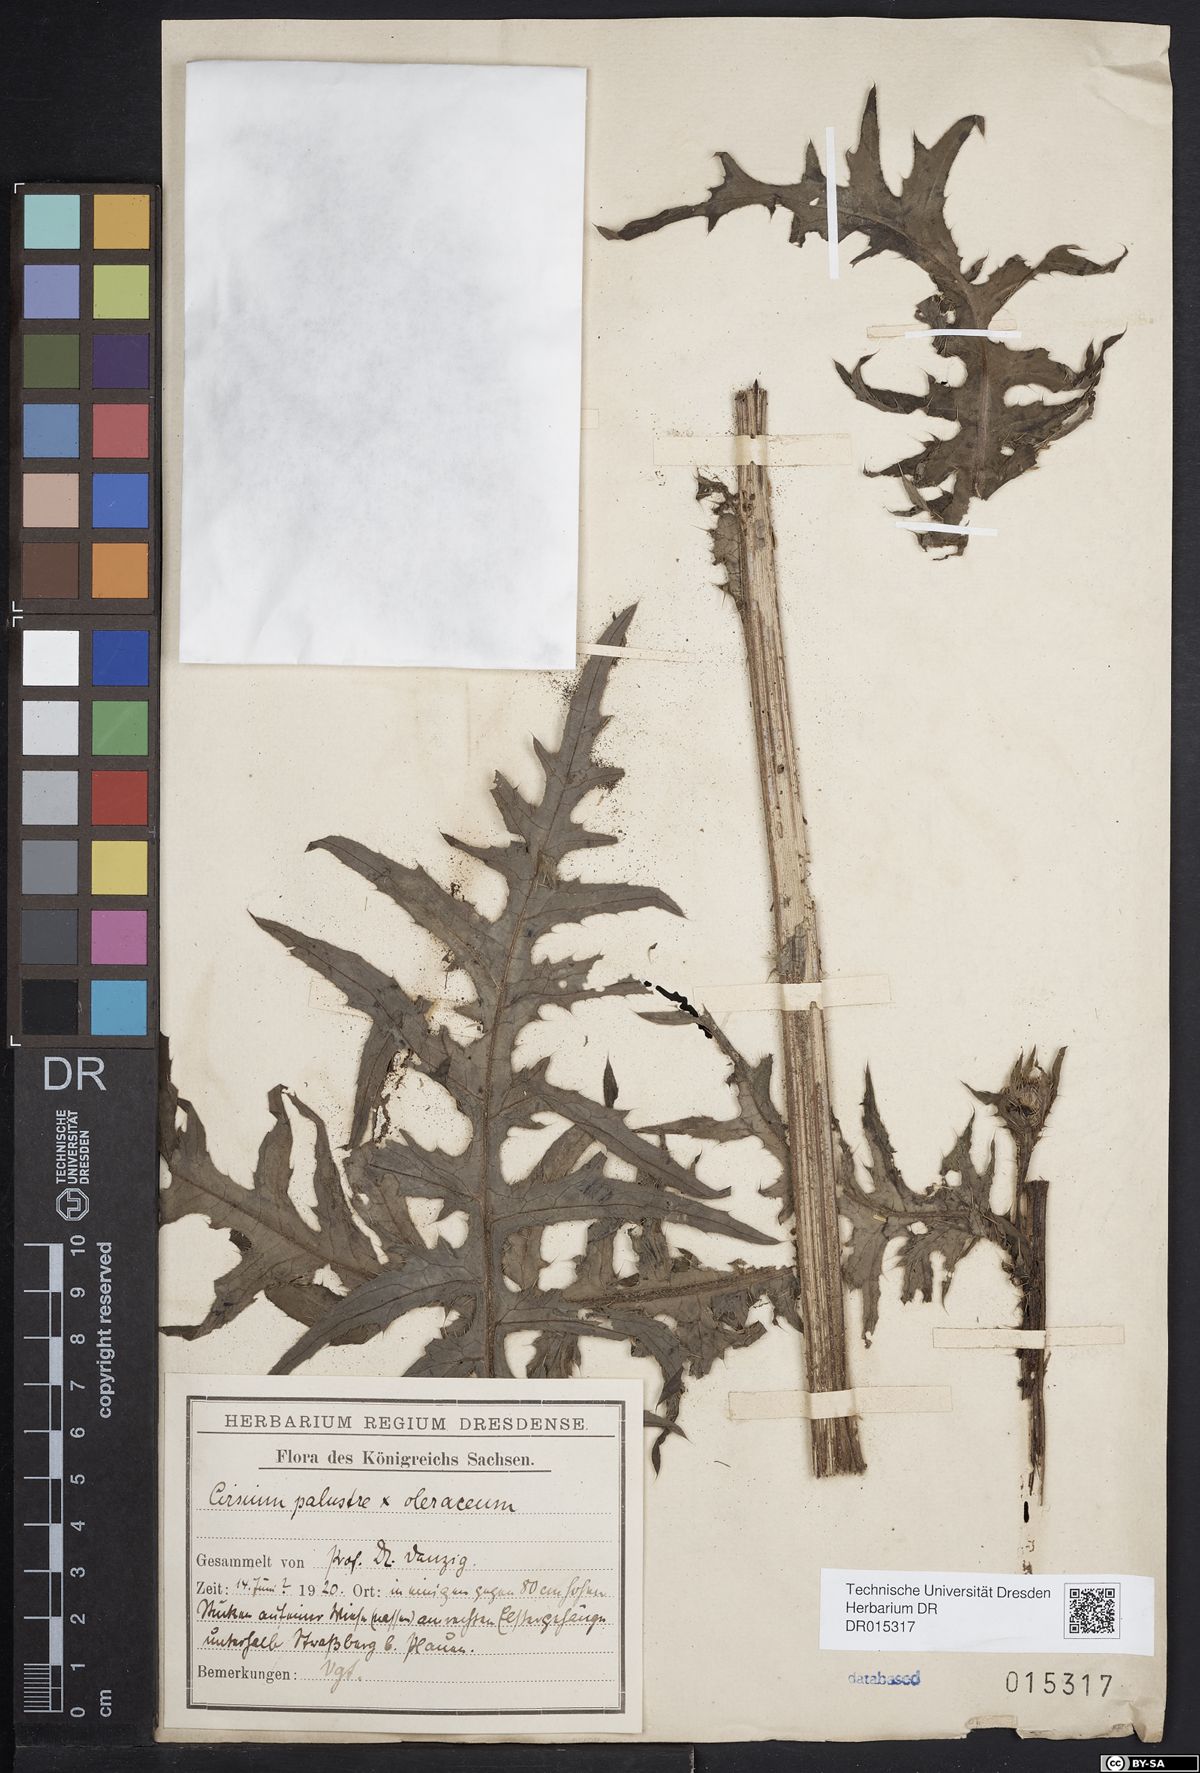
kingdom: Plantae
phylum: Tracheophyta
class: Magnoliopsida
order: Asterales
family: Asteraceae
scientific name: Asteraceae
